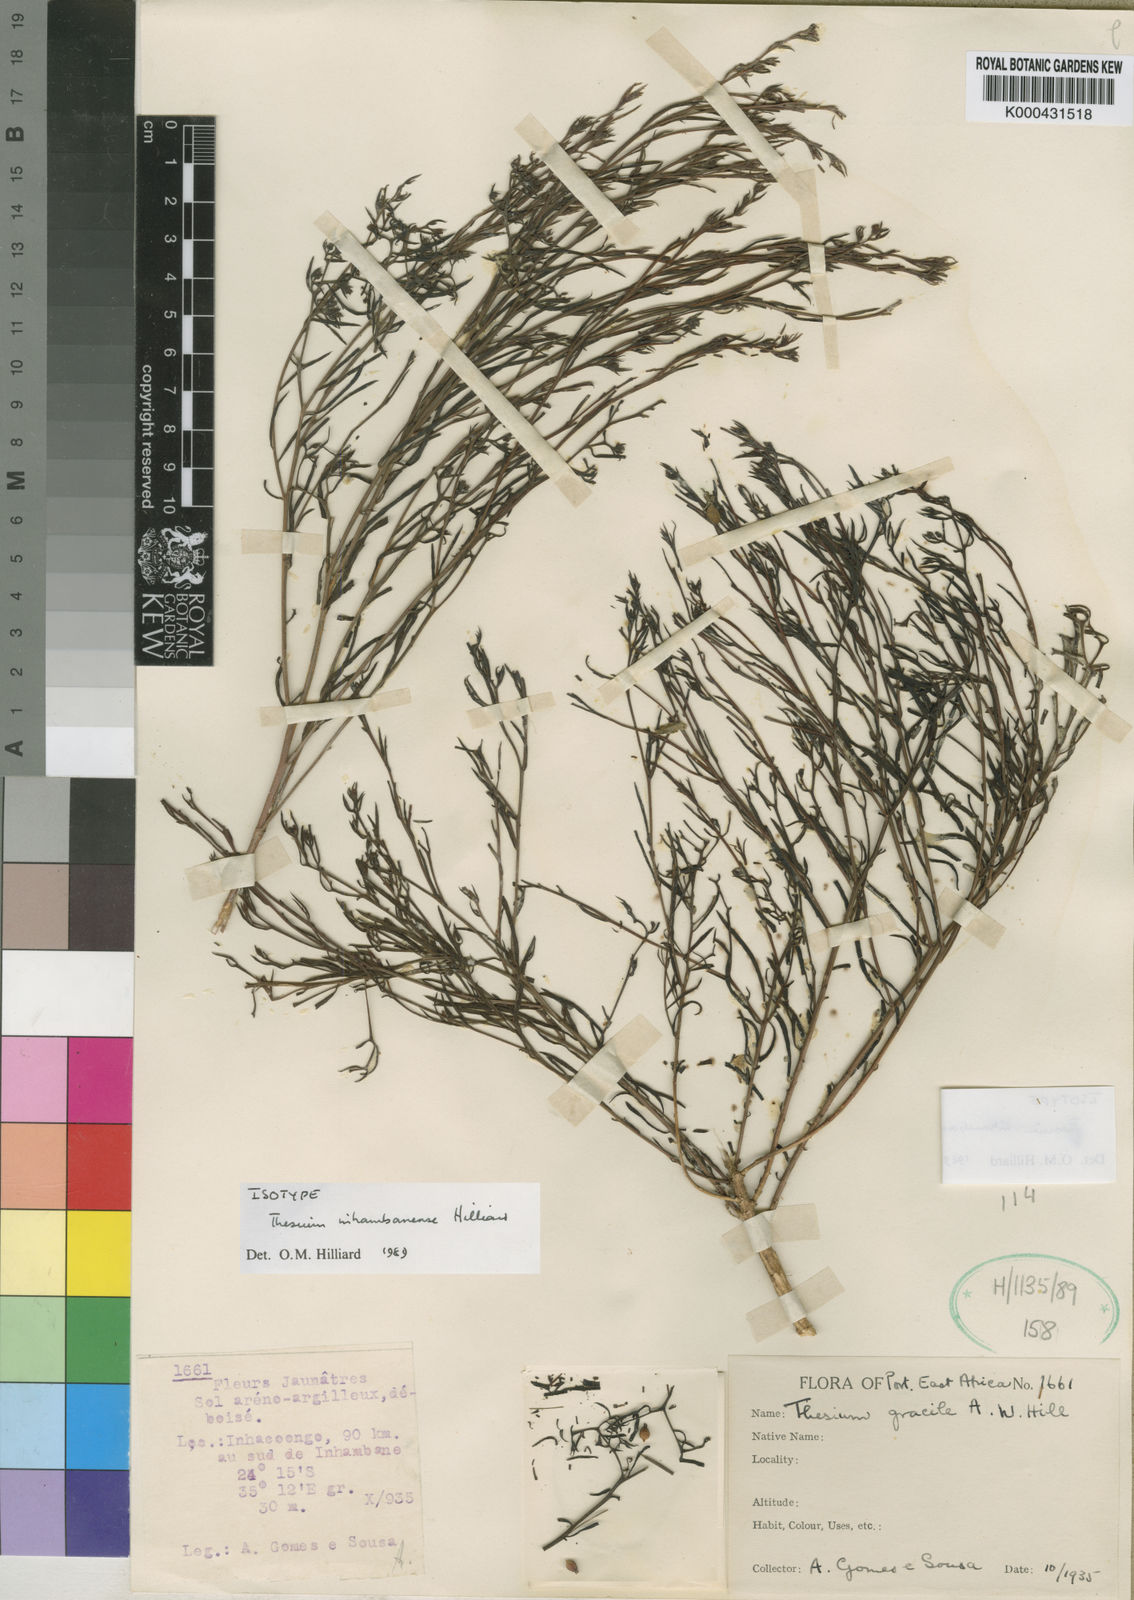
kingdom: Plantae
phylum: Tracheophyta
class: Magnoliopsida
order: Santalales
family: Thesiaceae
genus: Thesium
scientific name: Thesium inhambanense
